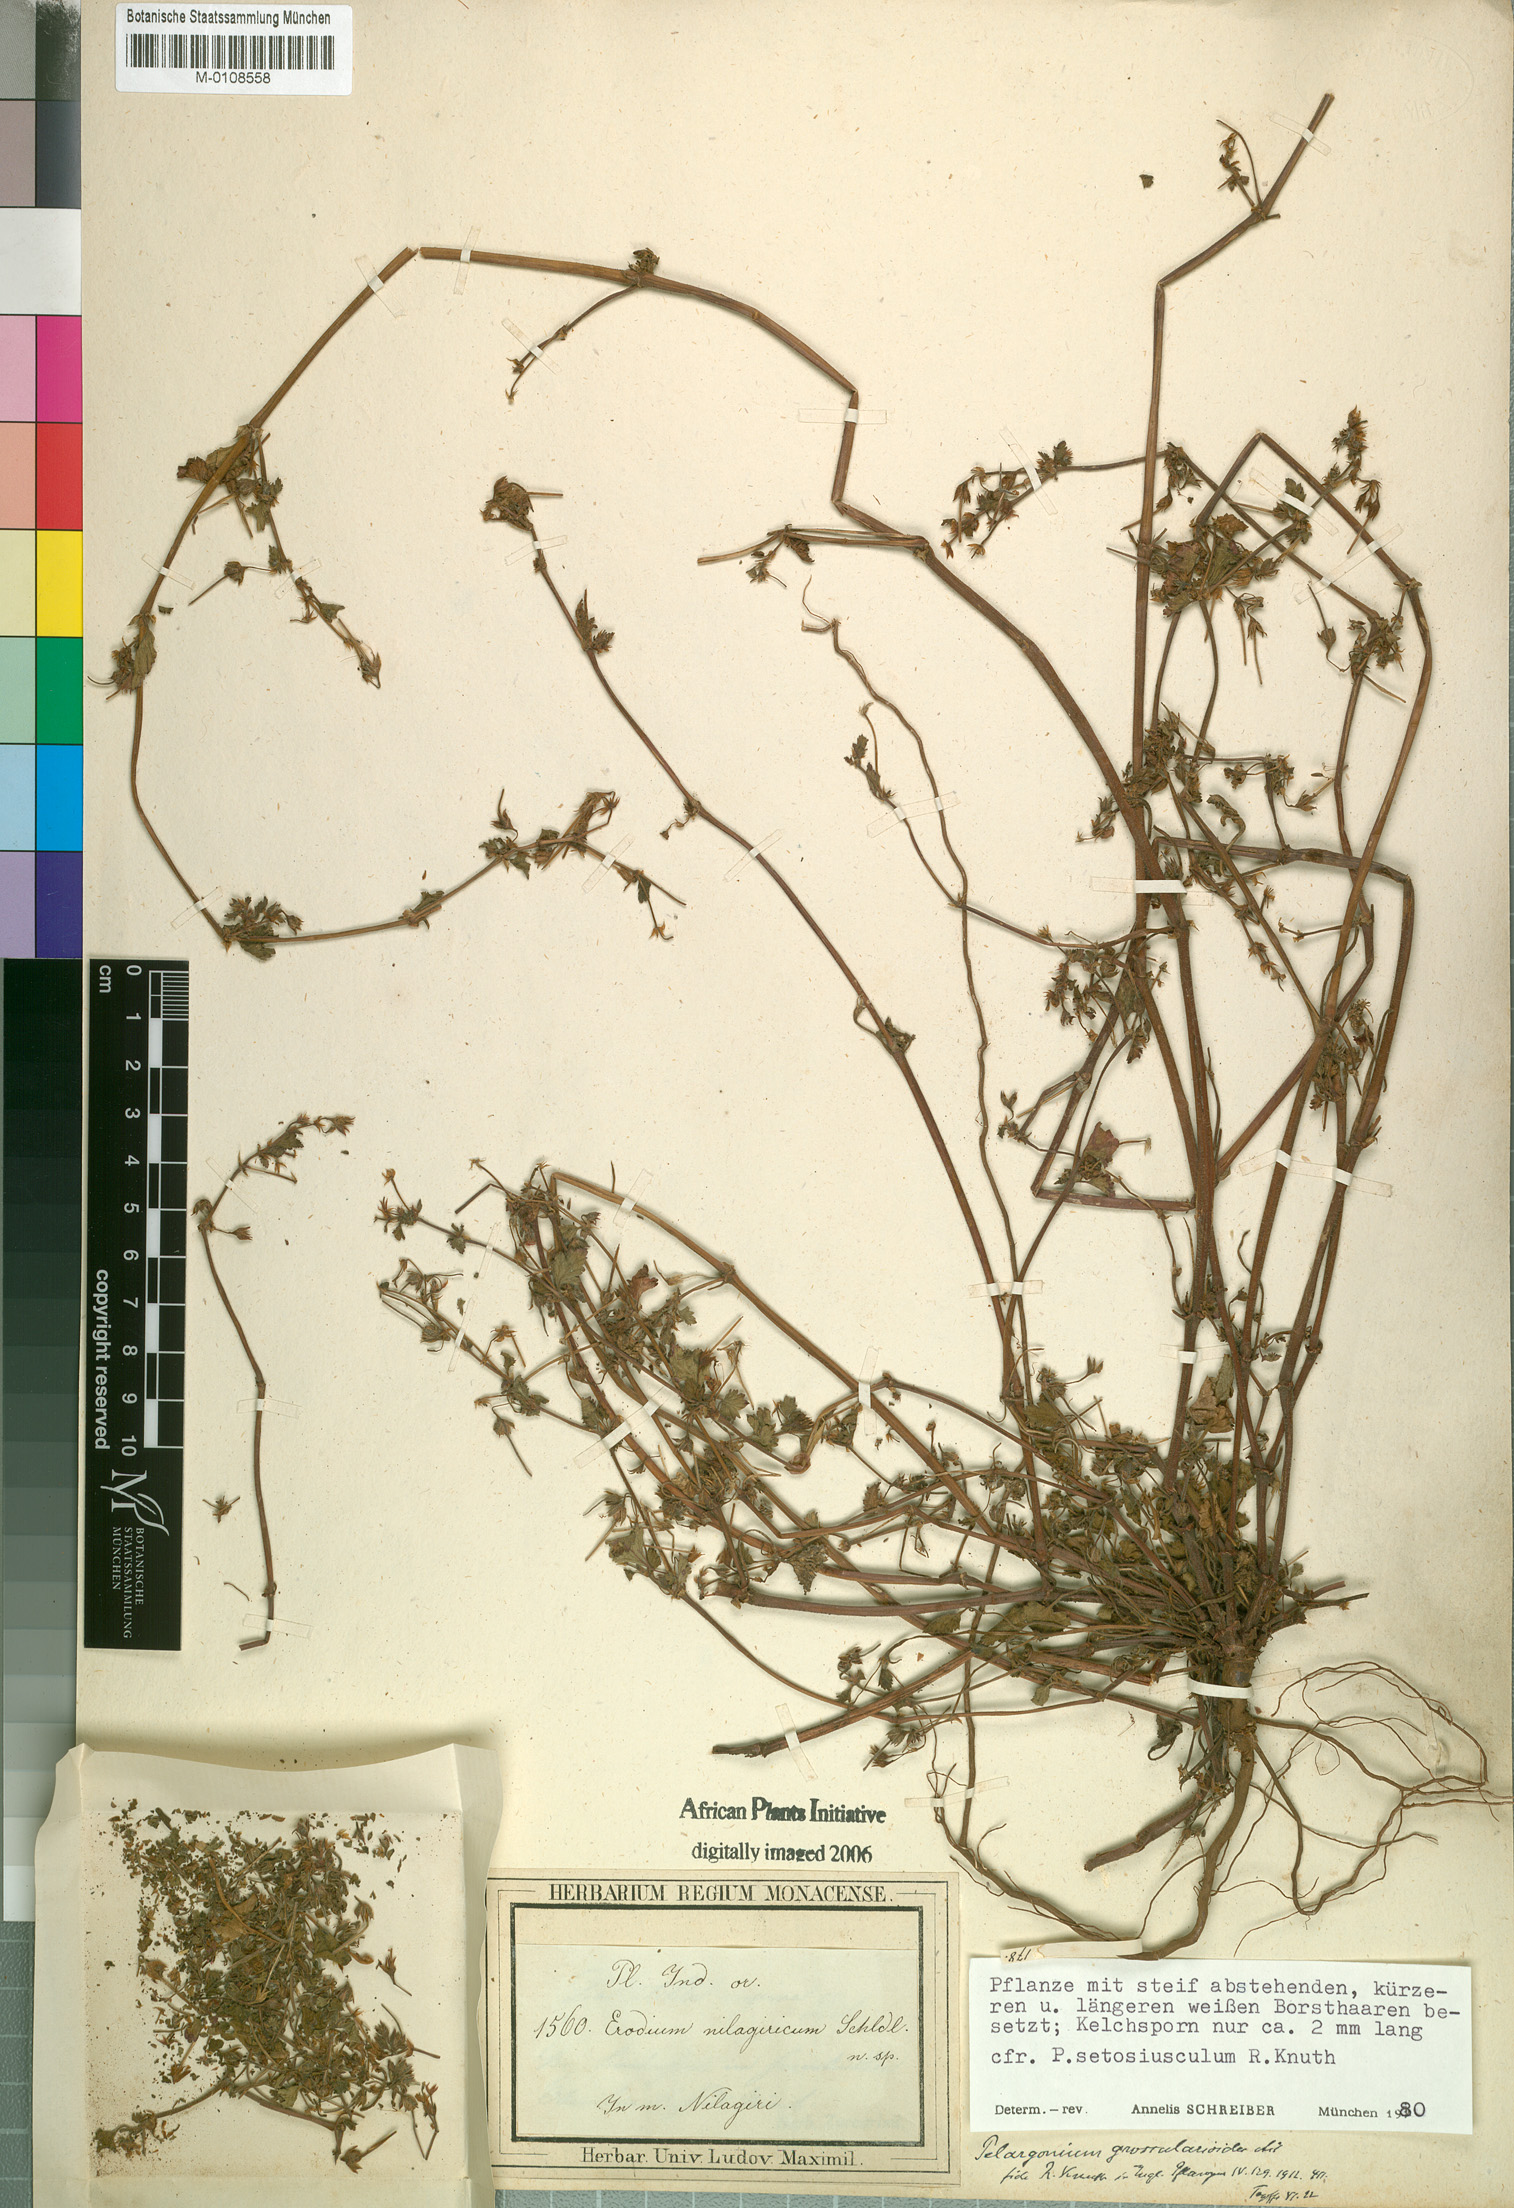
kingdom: Plantae
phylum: Tracheophyta
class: Magnoliopsida
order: Geraniales
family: Geraniaceae
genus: Pelargonium
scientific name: Pelargonium setosiusculum
